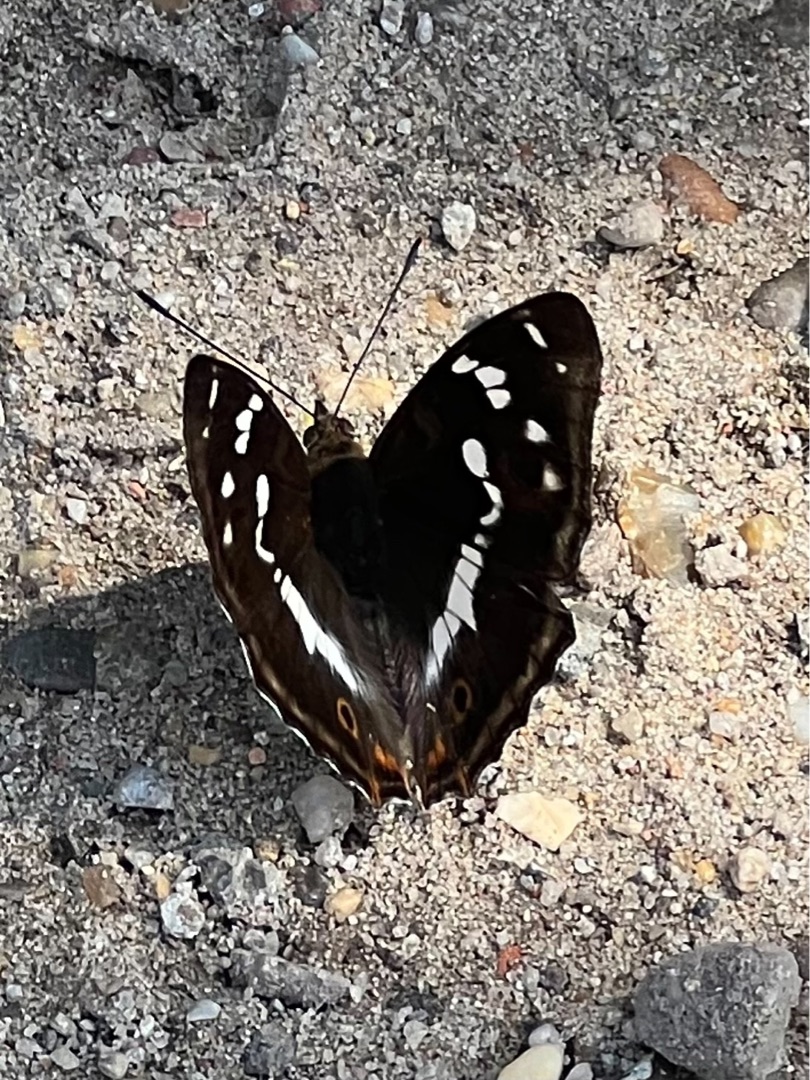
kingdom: Animalia
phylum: Arthropoda
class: Insecta
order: Lepidoptera
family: Nymphalidae
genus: Apatura
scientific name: Apatura iris
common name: Iris
